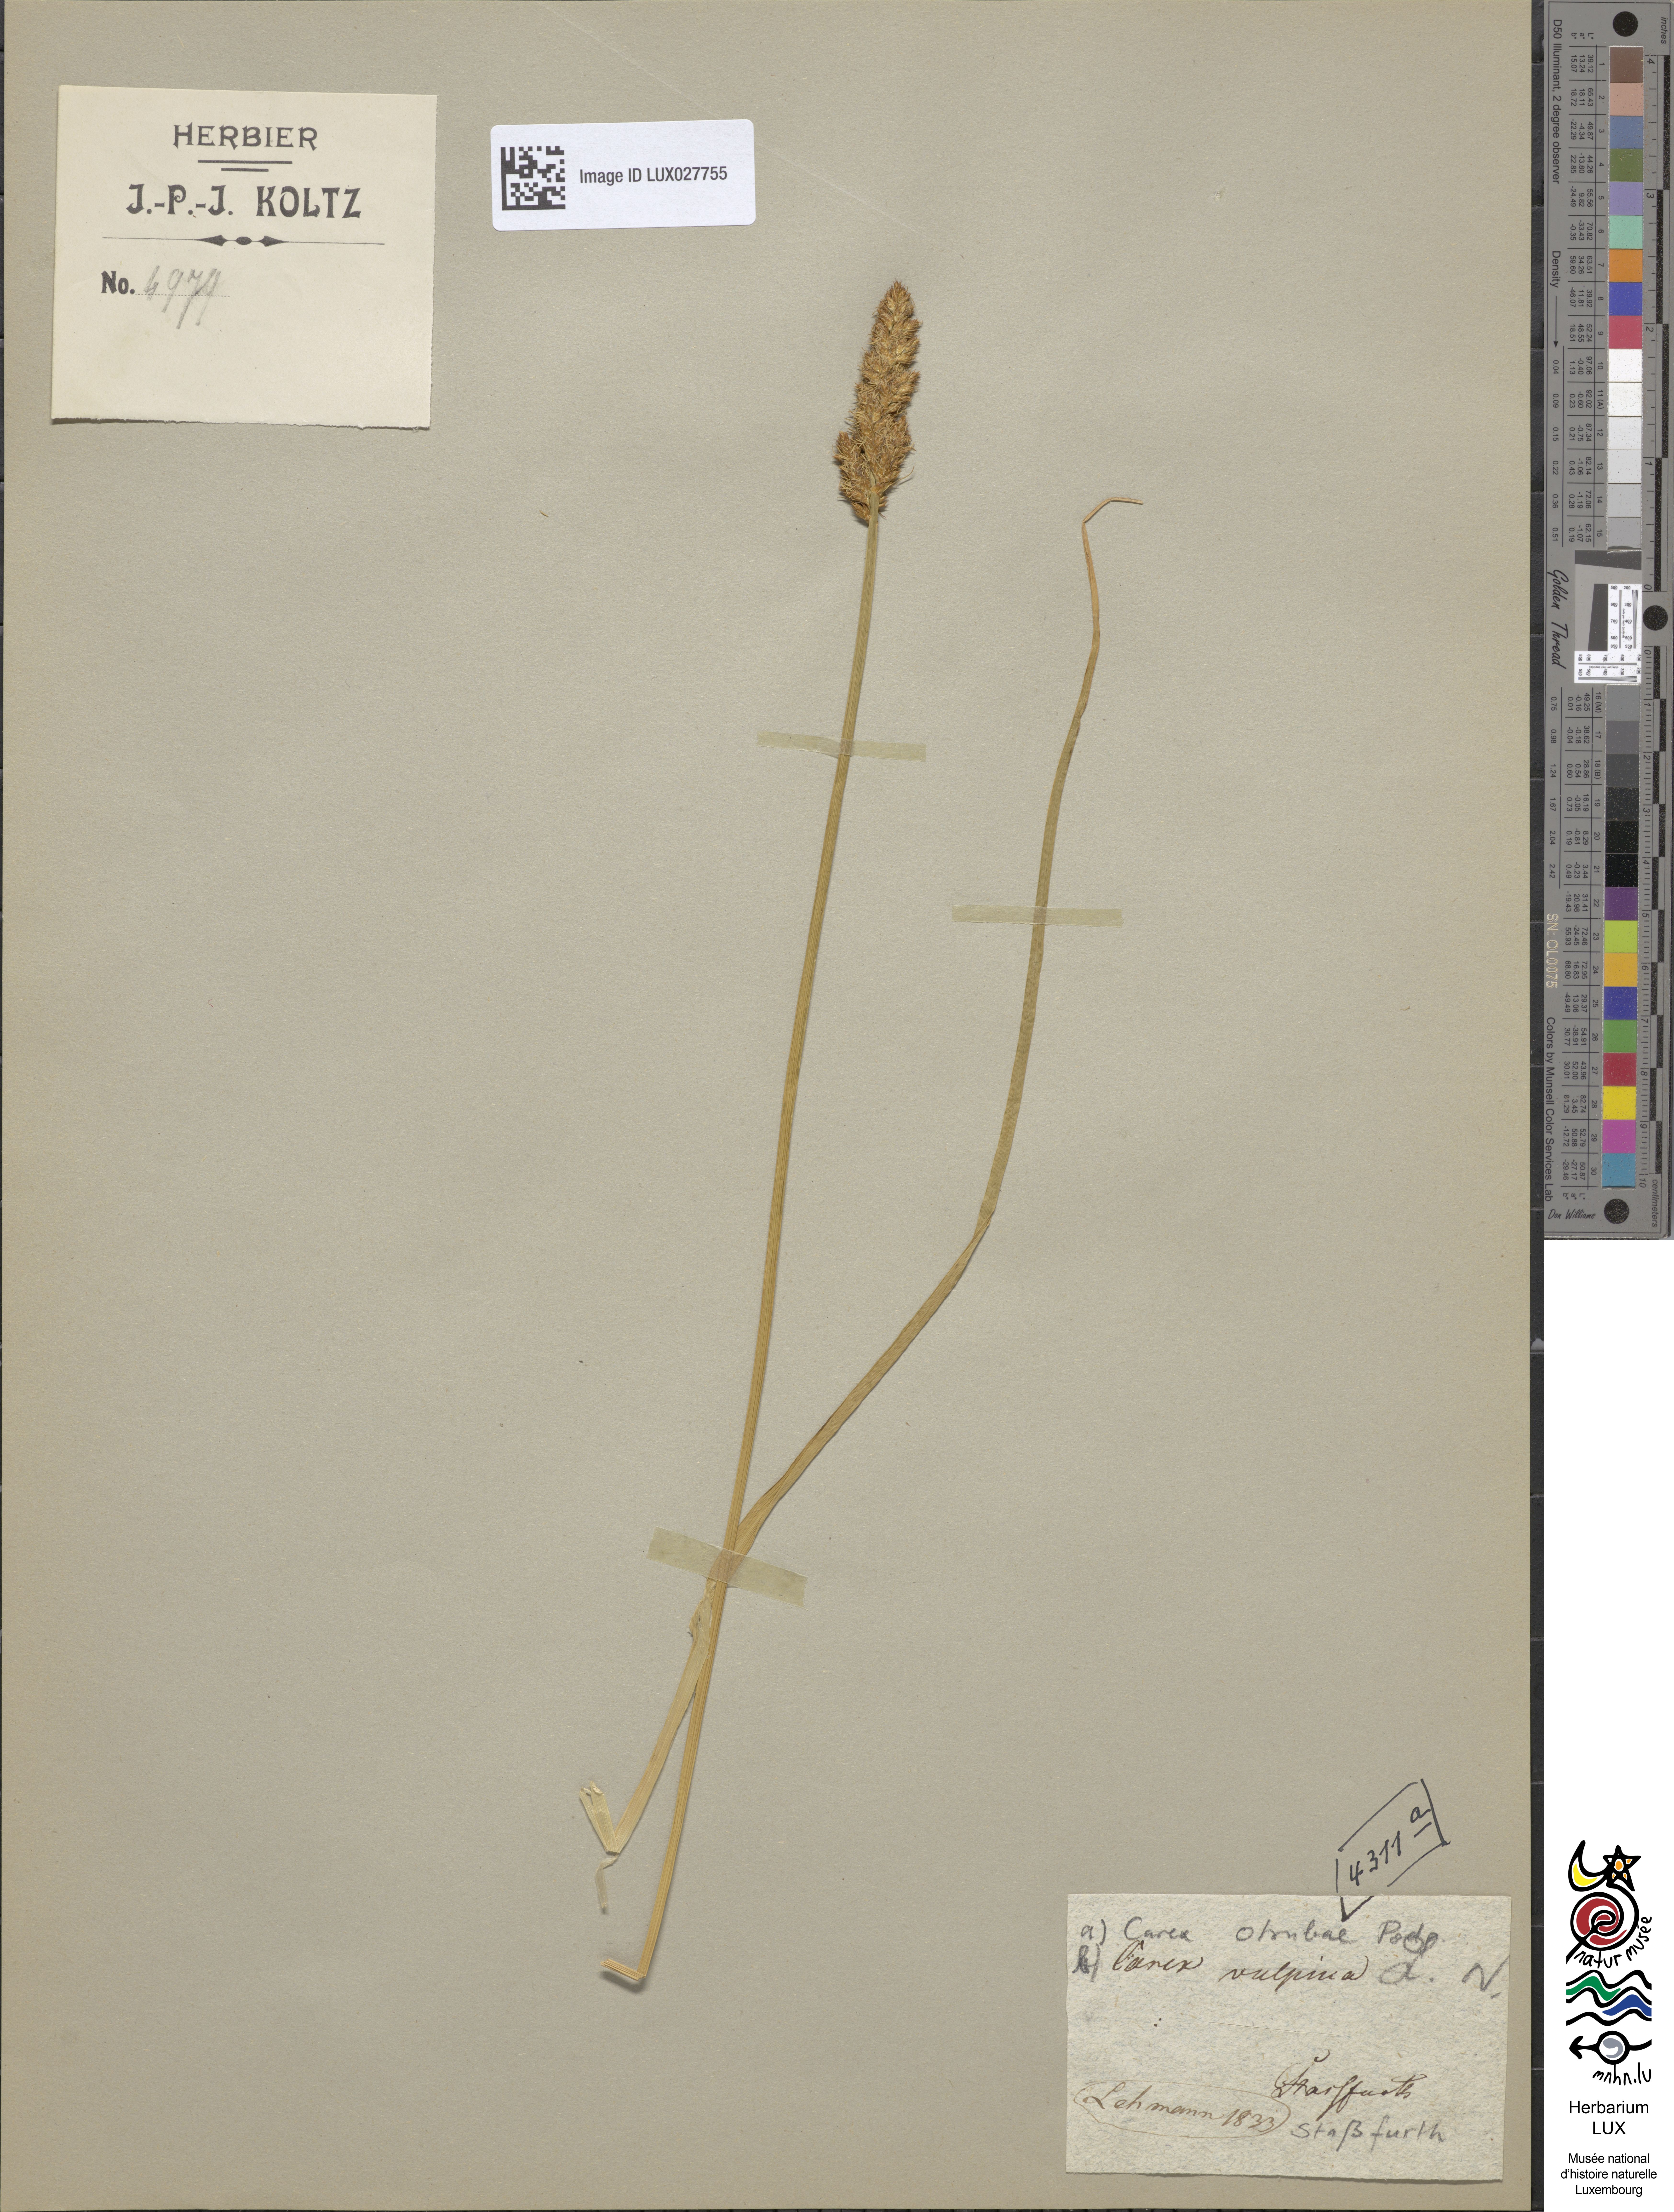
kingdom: Plantae
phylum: Tracheophyta
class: Liliopsida
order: Poales
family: Cyperaceae
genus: Carex
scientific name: Carex vulpina
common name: True fox-sedge
